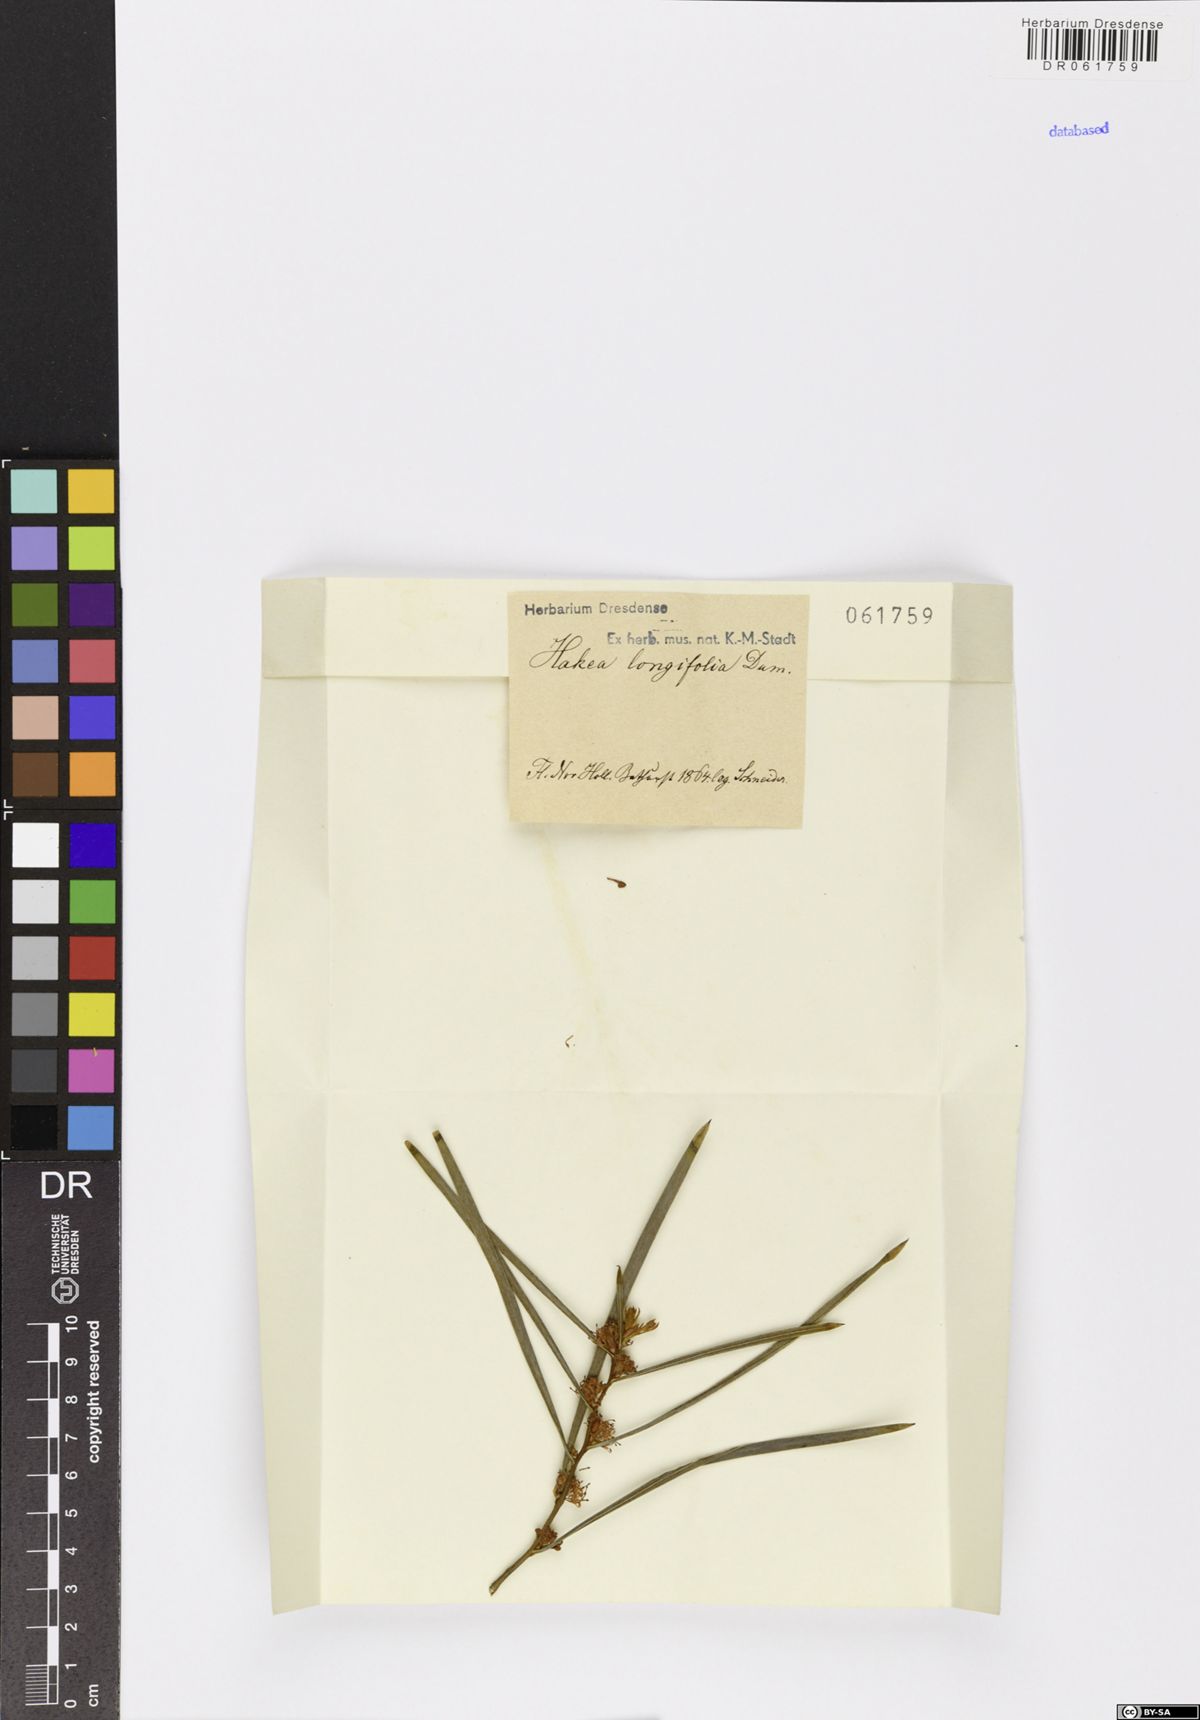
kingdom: Plantae
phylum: Tracheophyta
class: Magnoliopsida
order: Proteales
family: Proteaceae
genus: Hakea
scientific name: Hakea teretifolia
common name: Dagger hakea
